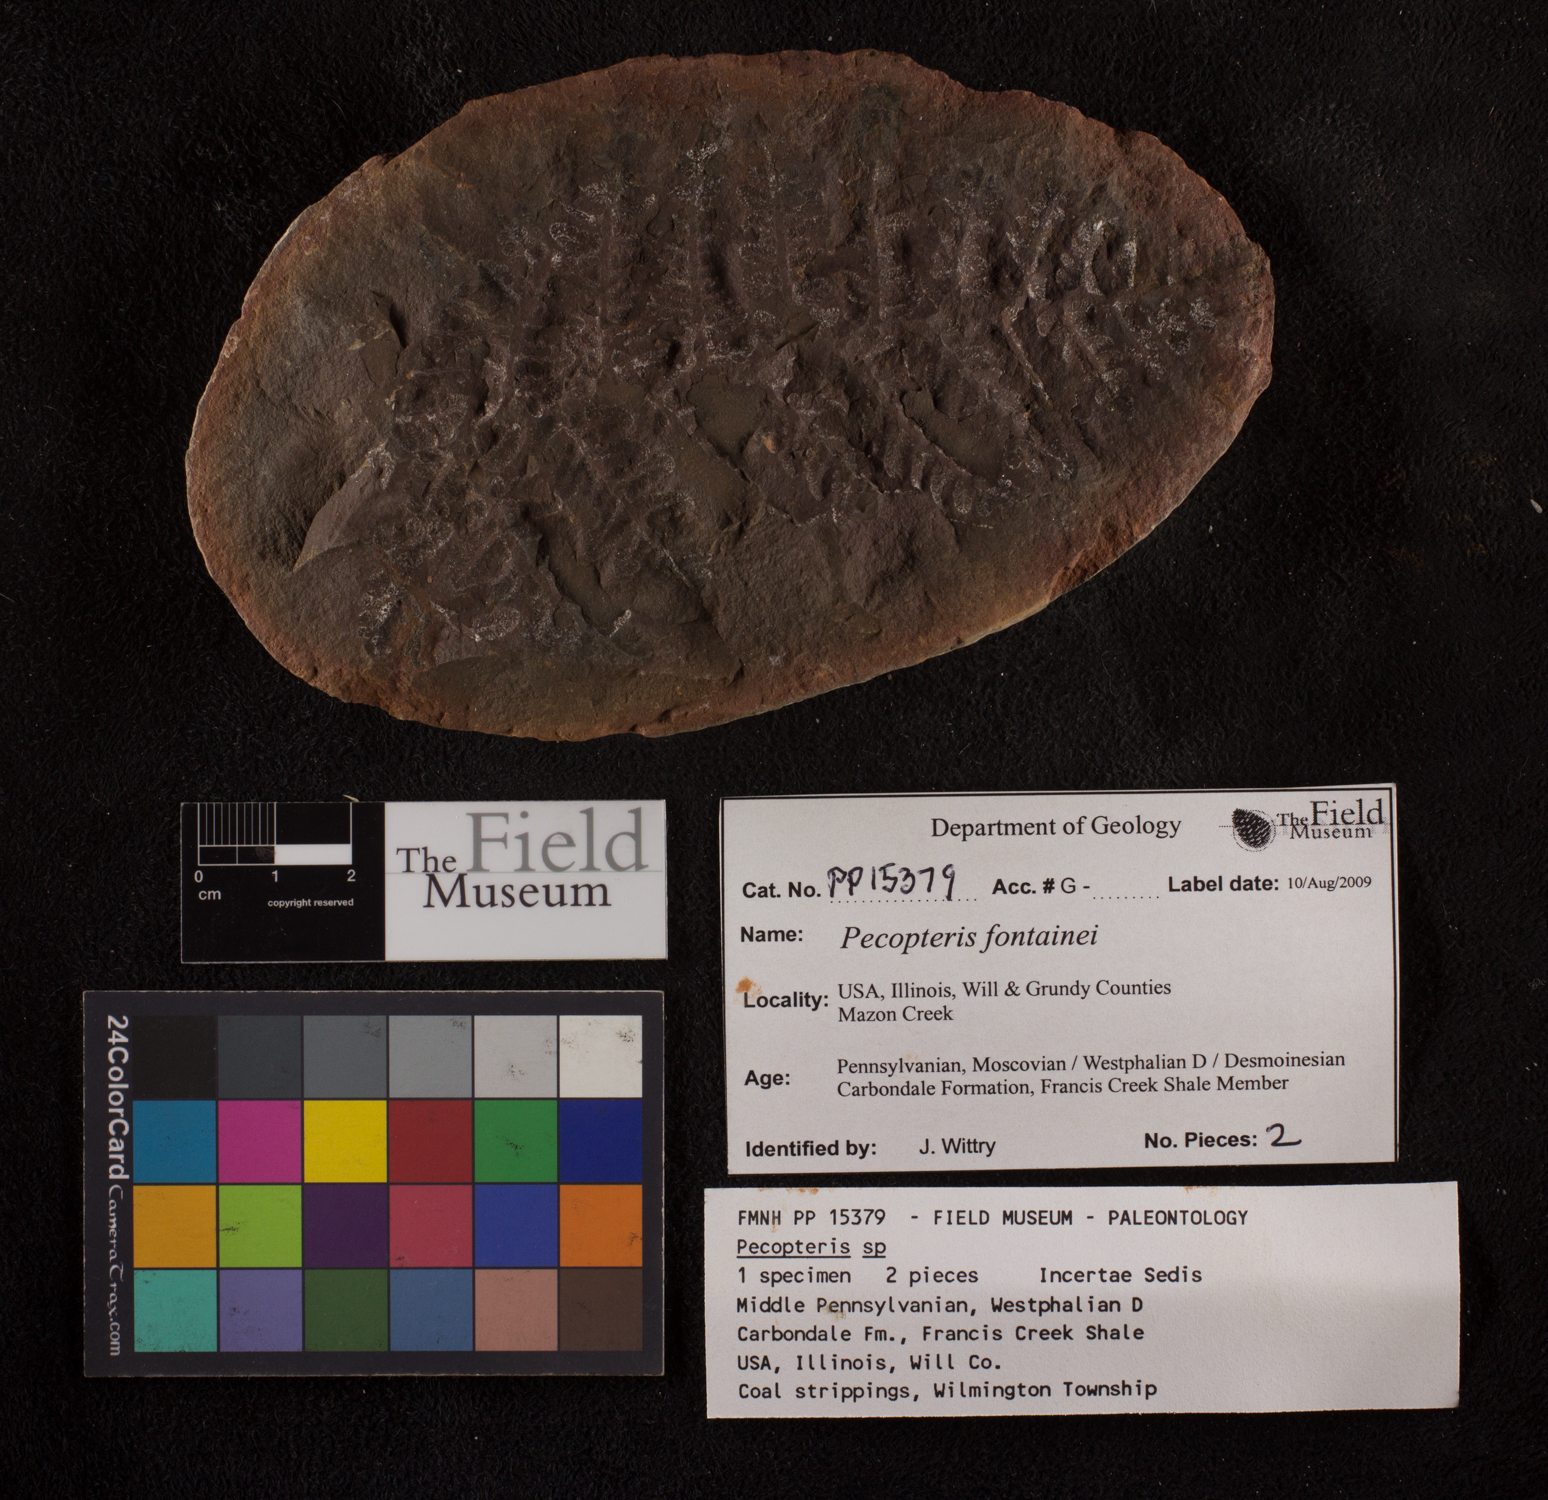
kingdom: Plantae
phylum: Tracheophyta
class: Polypodiopsida
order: Marattiales
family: Asterothecaceae
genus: Pecopteris
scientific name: Pecopteris
